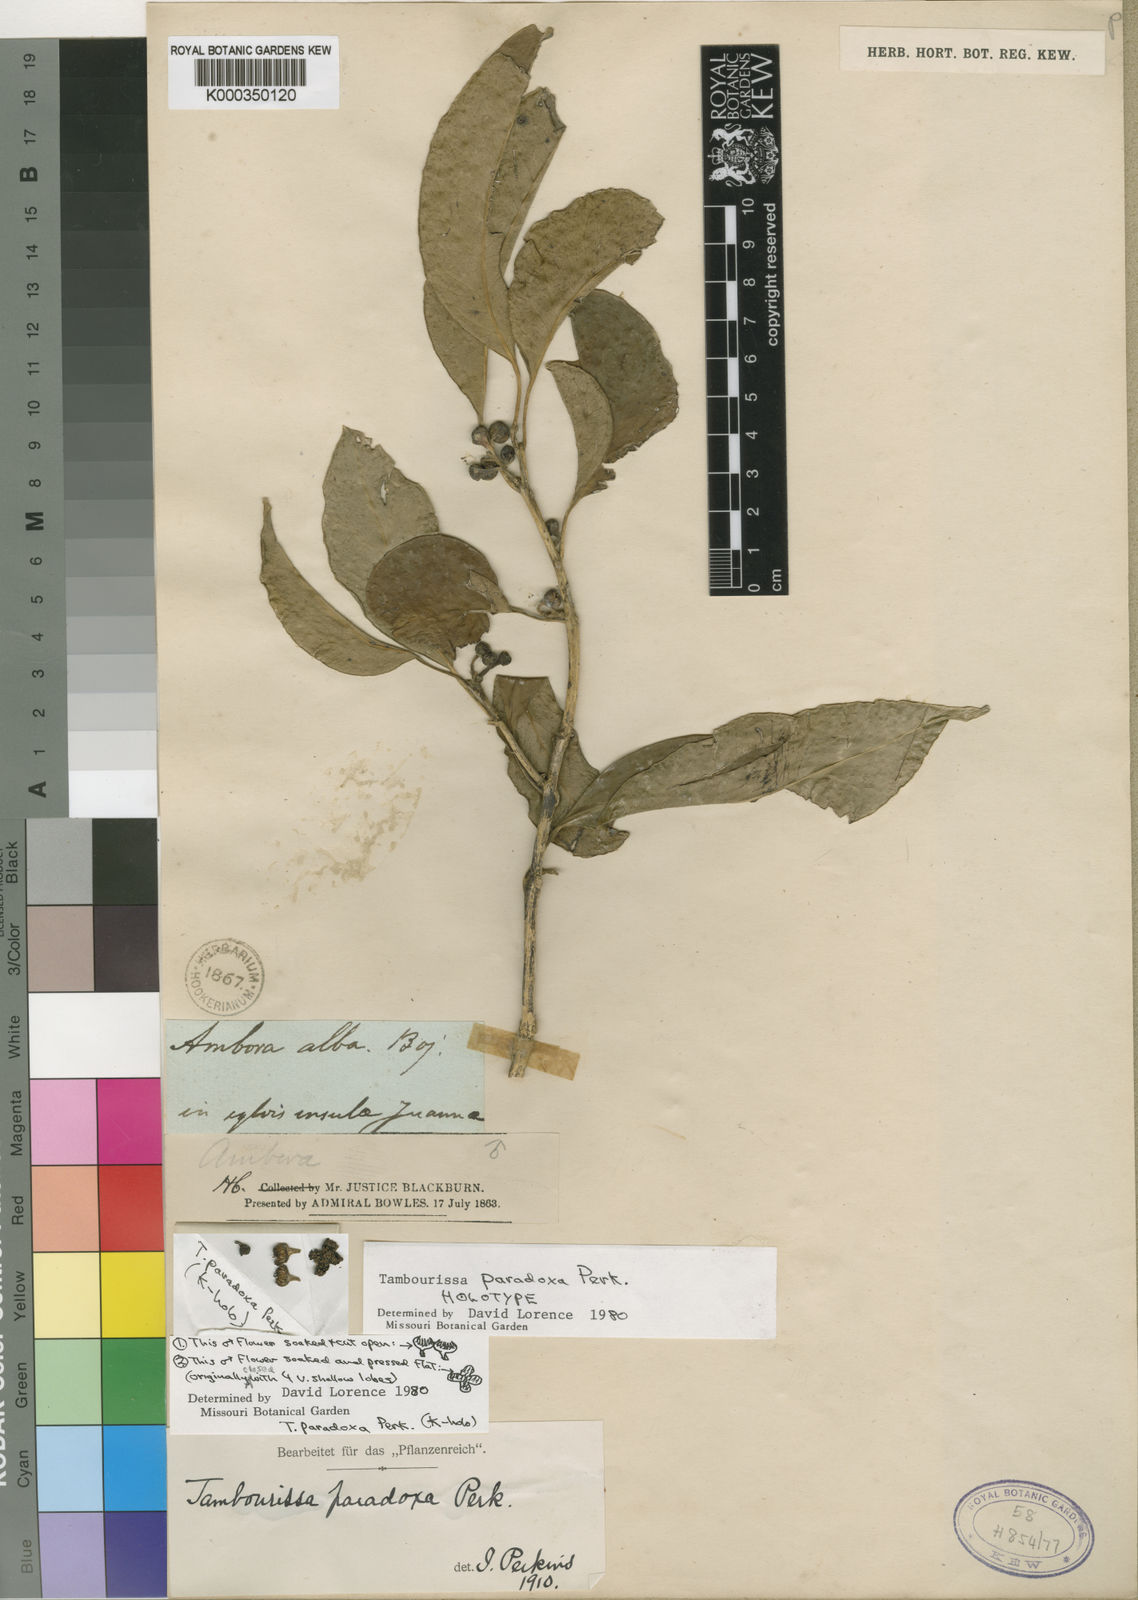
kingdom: Plantae
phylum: Tracheophyta
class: Magnoliopsida
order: Laurales
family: Monimiaceae
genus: Tambourissa
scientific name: Tambourissa paradoxa
